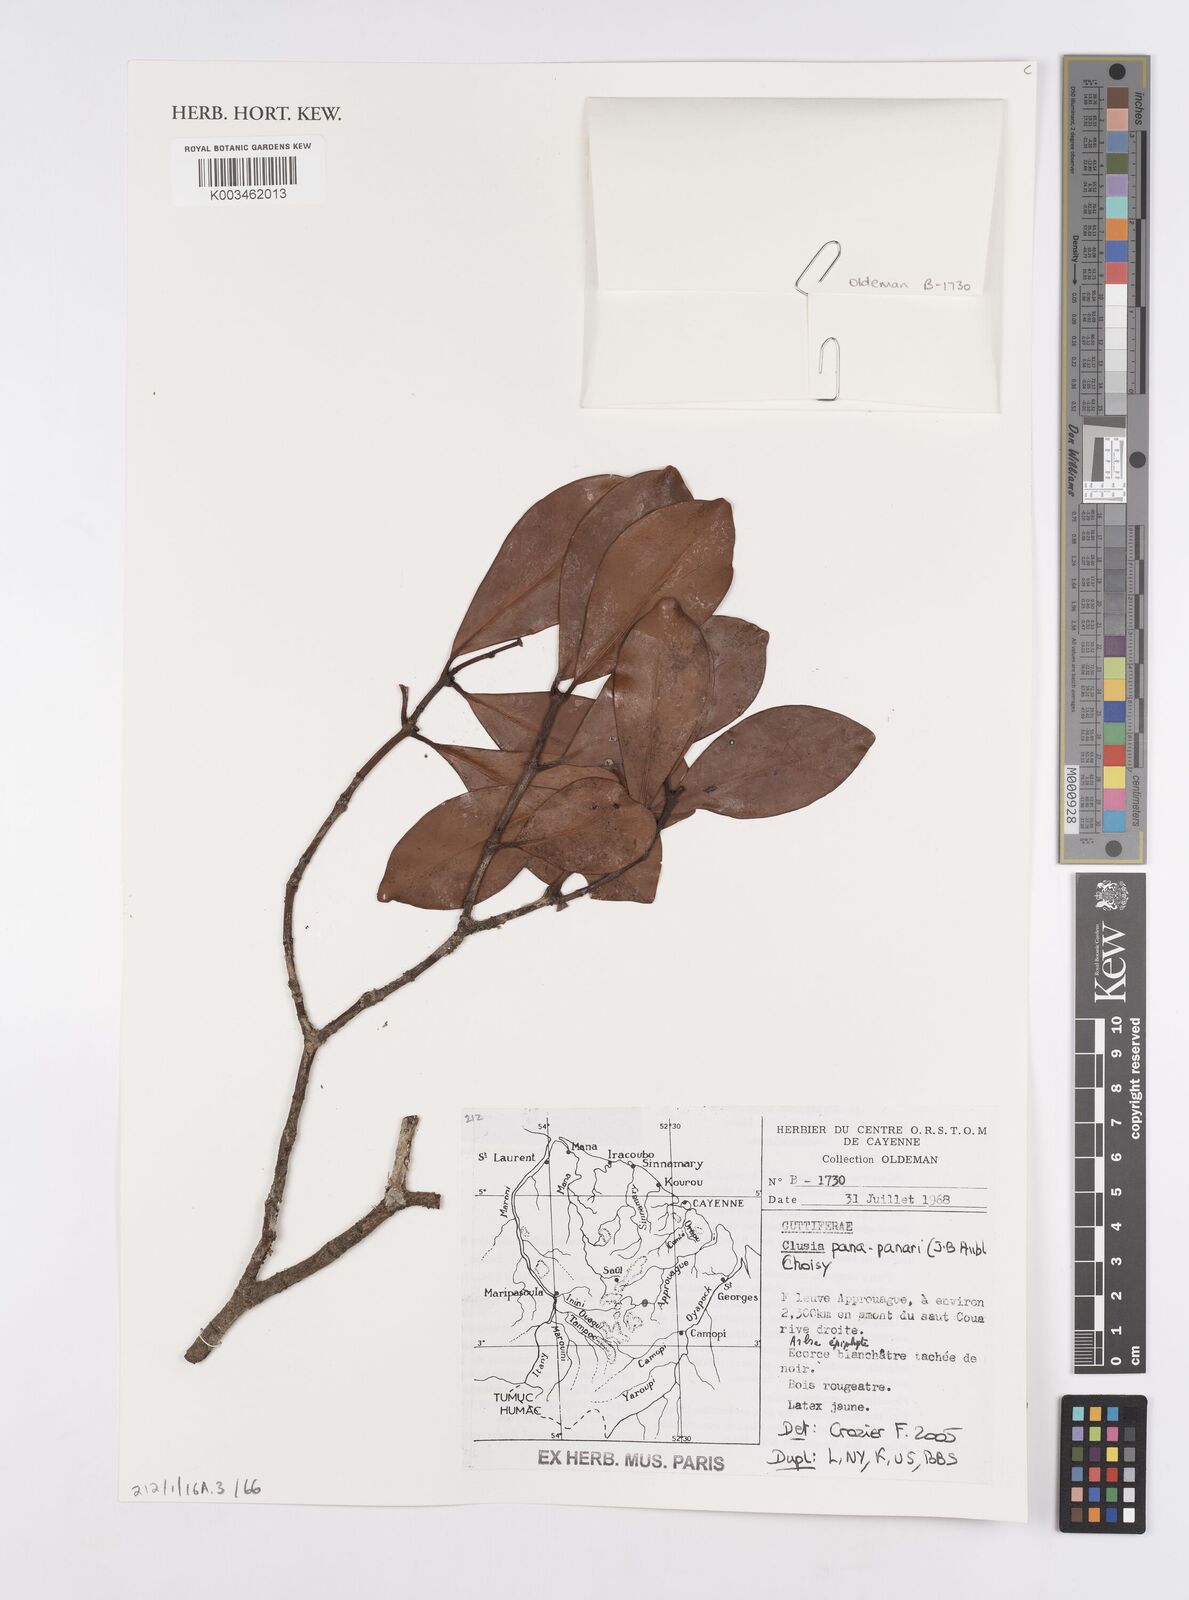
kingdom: Plantae
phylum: Tracheophyta
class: Magnoliopsida
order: Malpighiales
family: Clusiaceae
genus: Clusia
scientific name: Clusia panapanari
